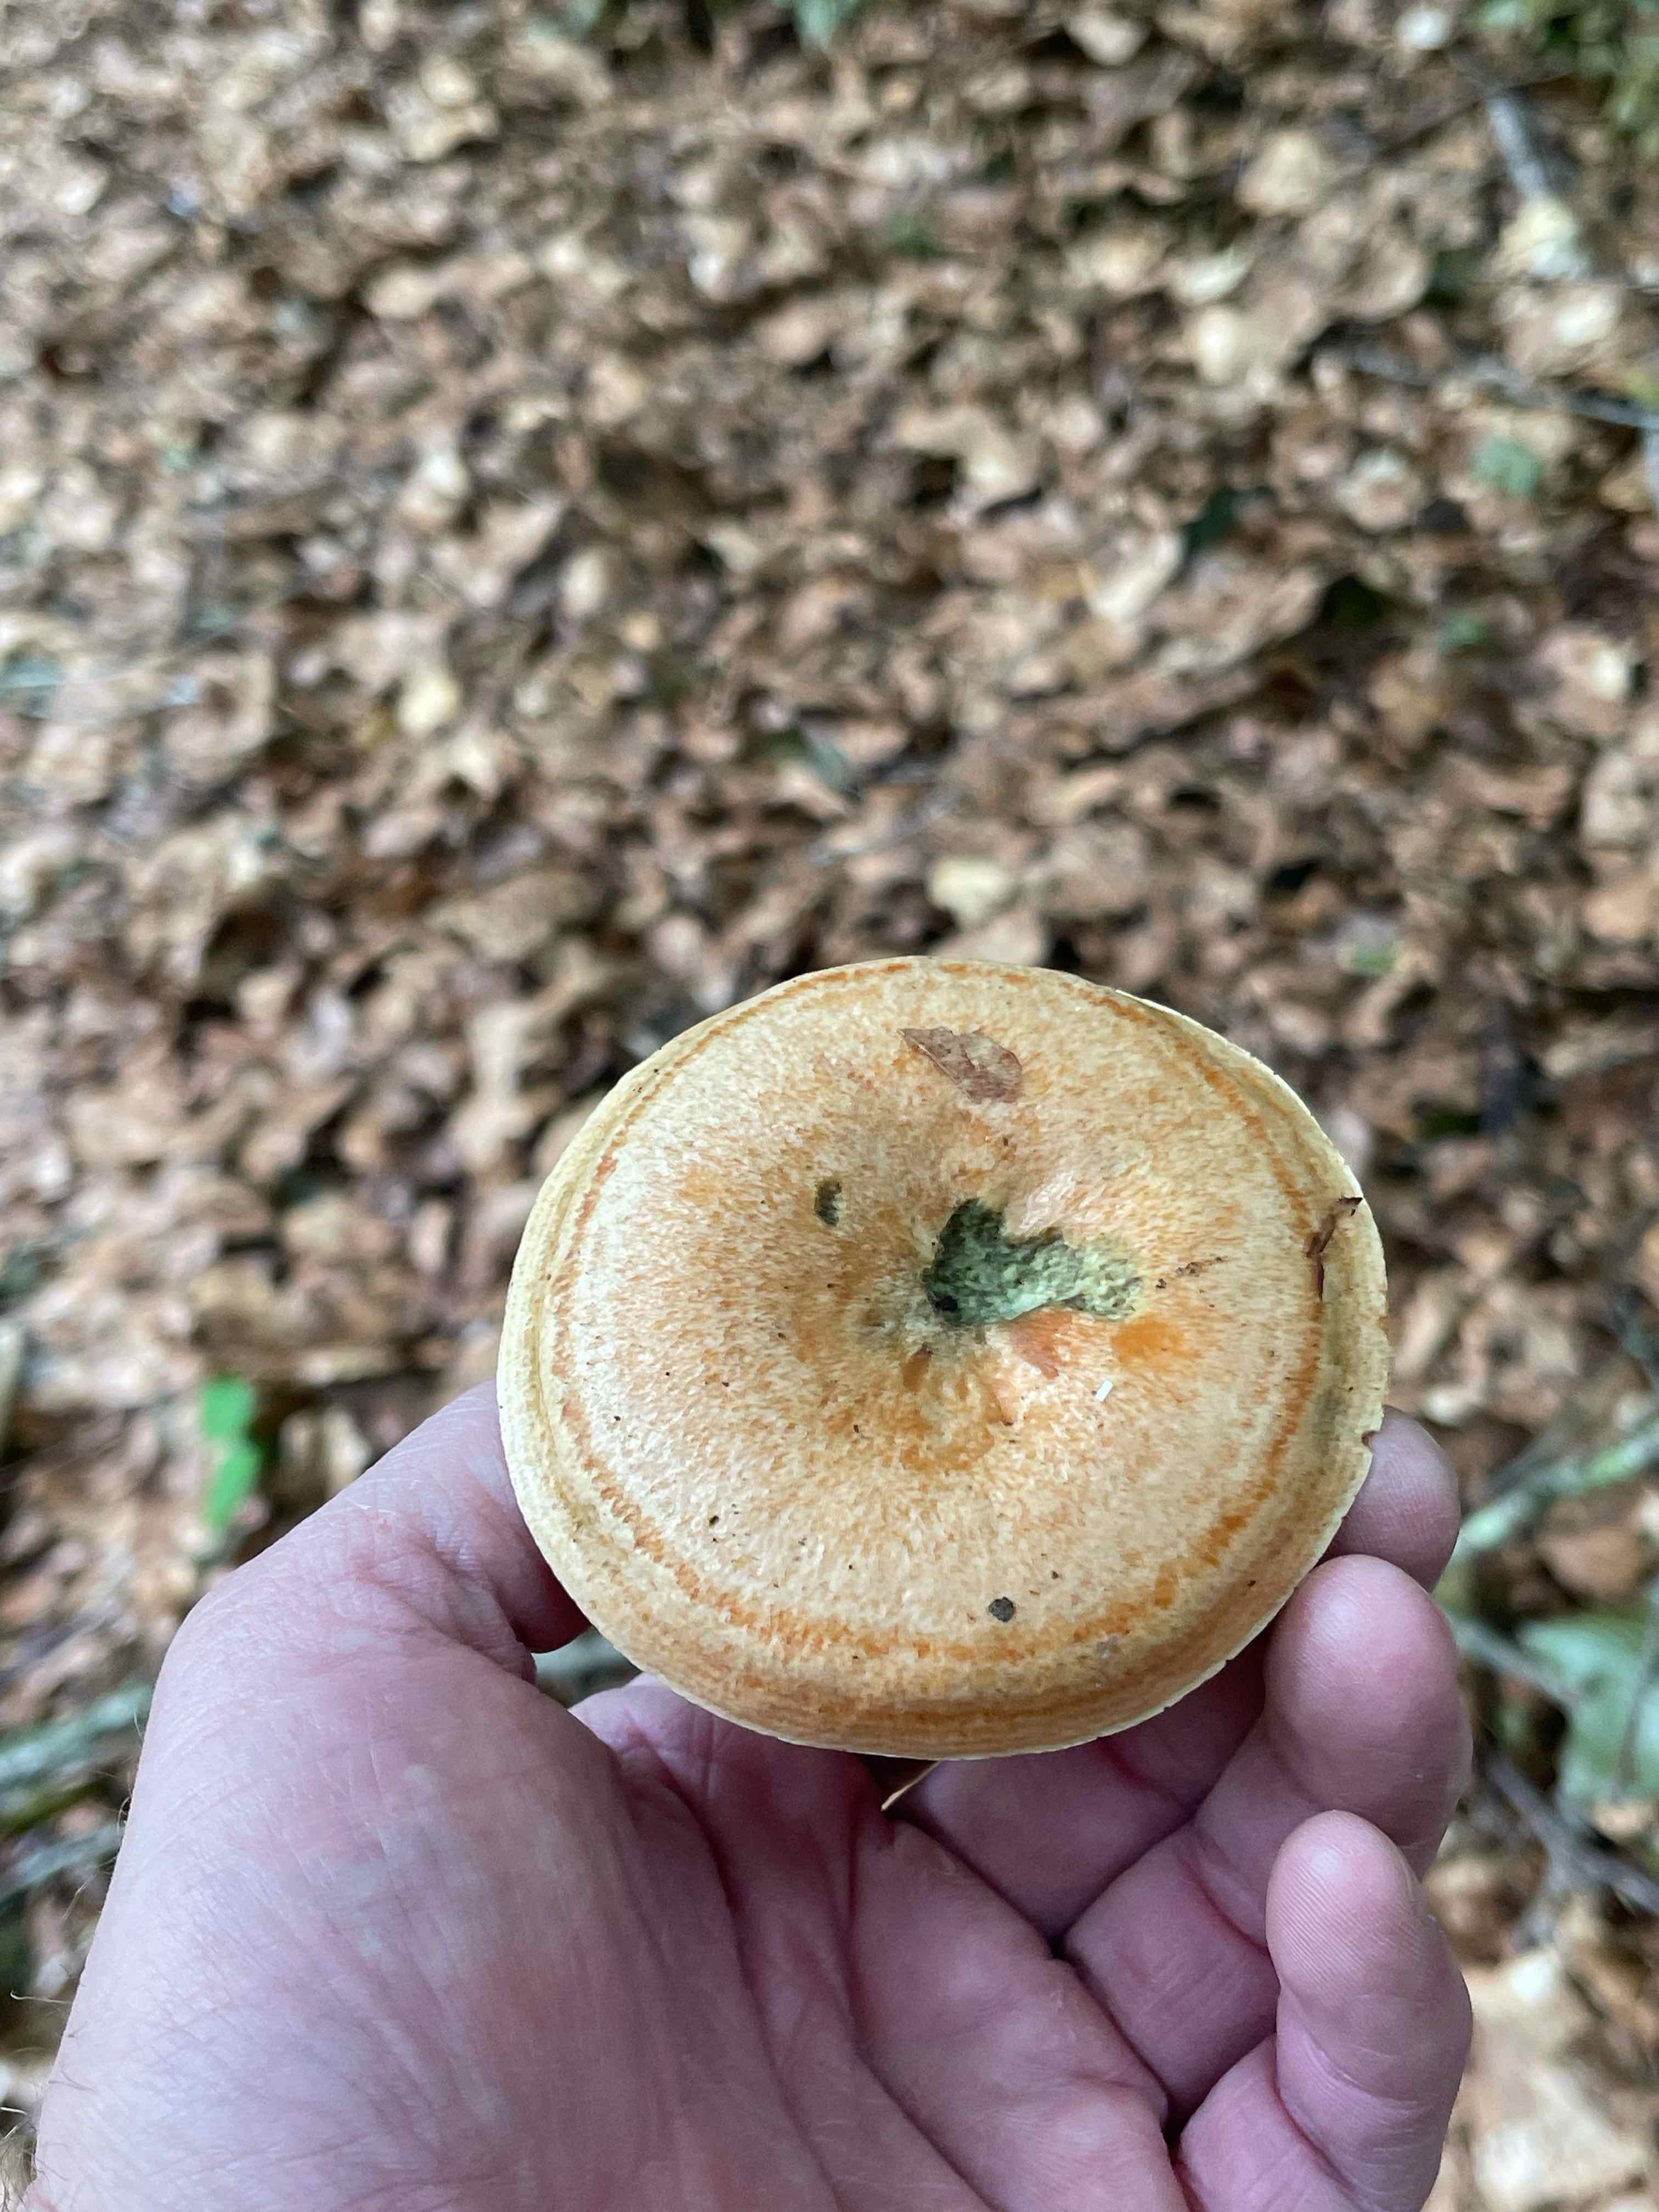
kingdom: Fungi
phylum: Basidiomycota
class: Agaricomycetes
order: Russulales
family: Russulaceae
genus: Lactarius
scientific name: Lactarius deterrimus
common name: gran-mælkehat
